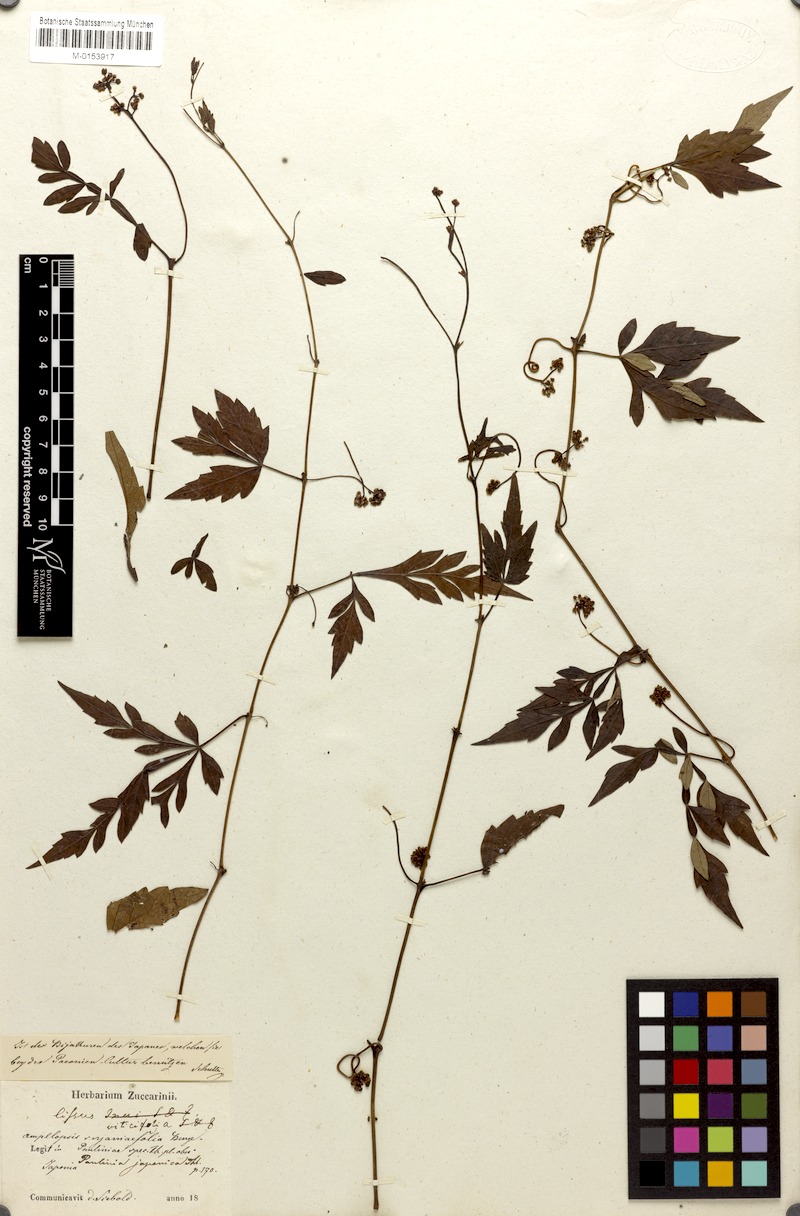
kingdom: Plantae
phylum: Tracheophyta
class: Magnoliopsida
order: Vitales
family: Vitaceae
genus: Ampelopsis
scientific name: Ampelopsis japonica
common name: Japanese peppervine
